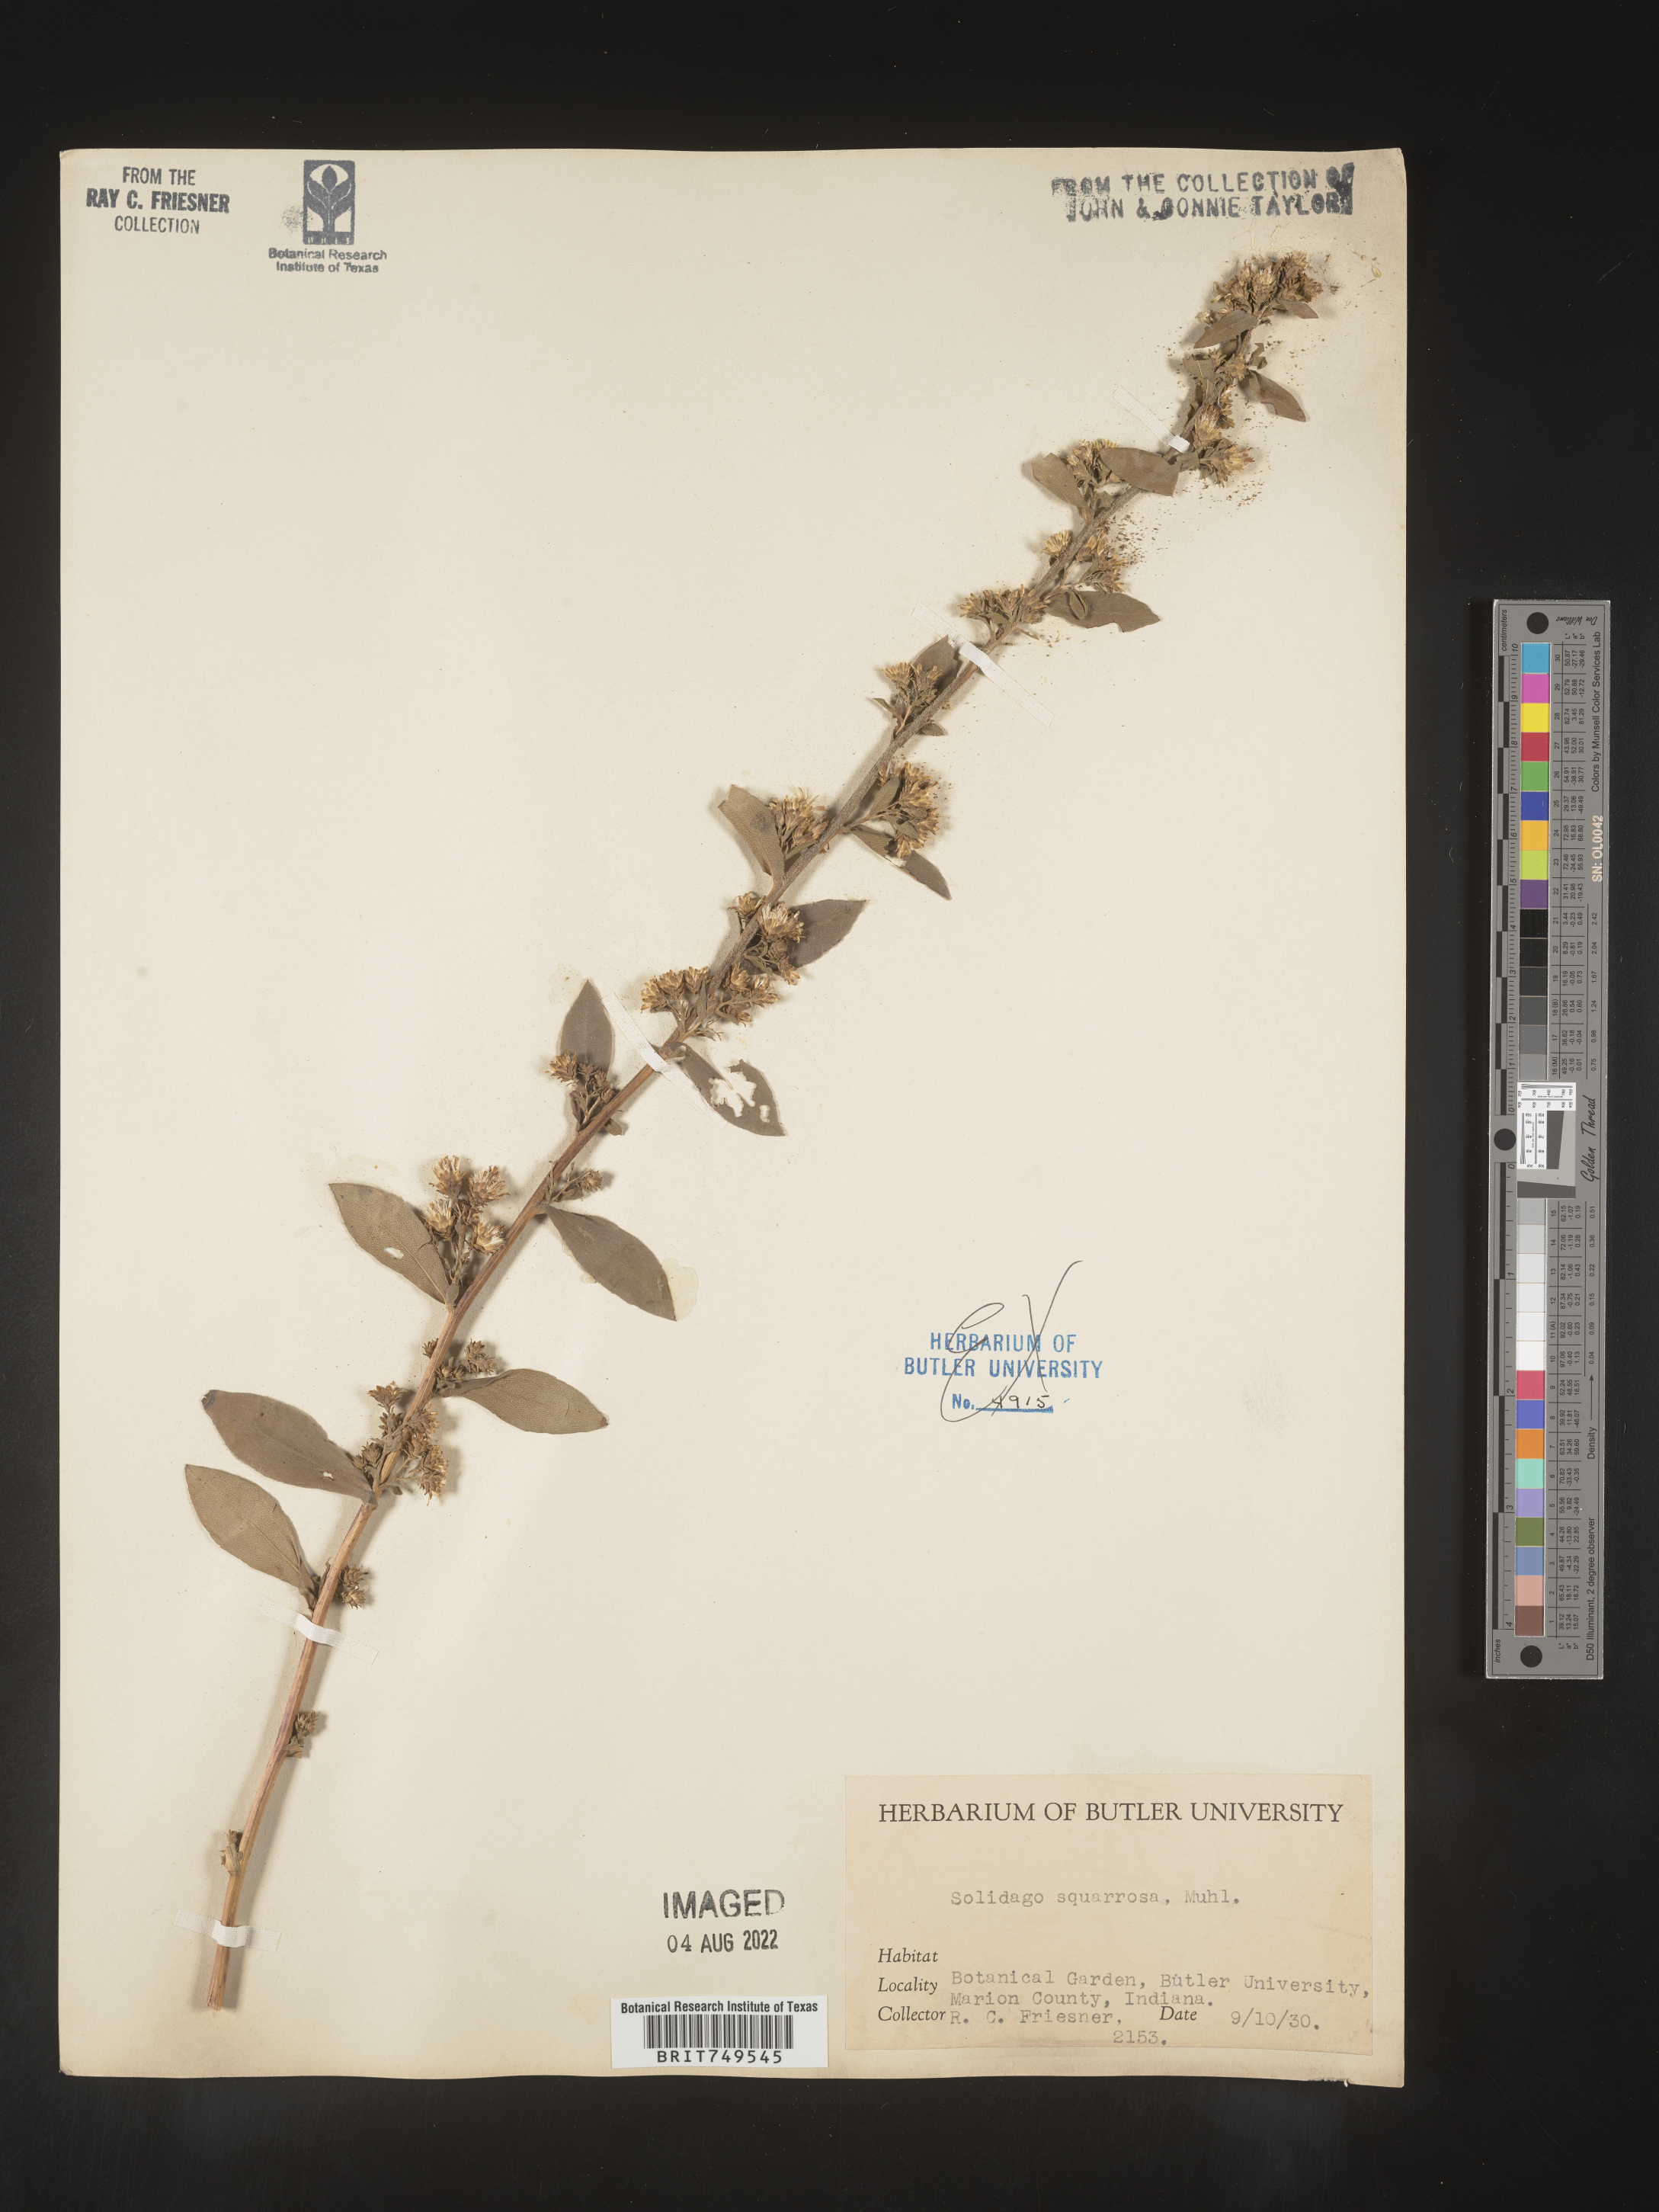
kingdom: Plantae
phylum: Tracheophyta
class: Magnoliopsida
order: Asterales
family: Asteraceae
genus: Solidago
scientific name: Solidago squarrosa
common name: Stout goldenrod
